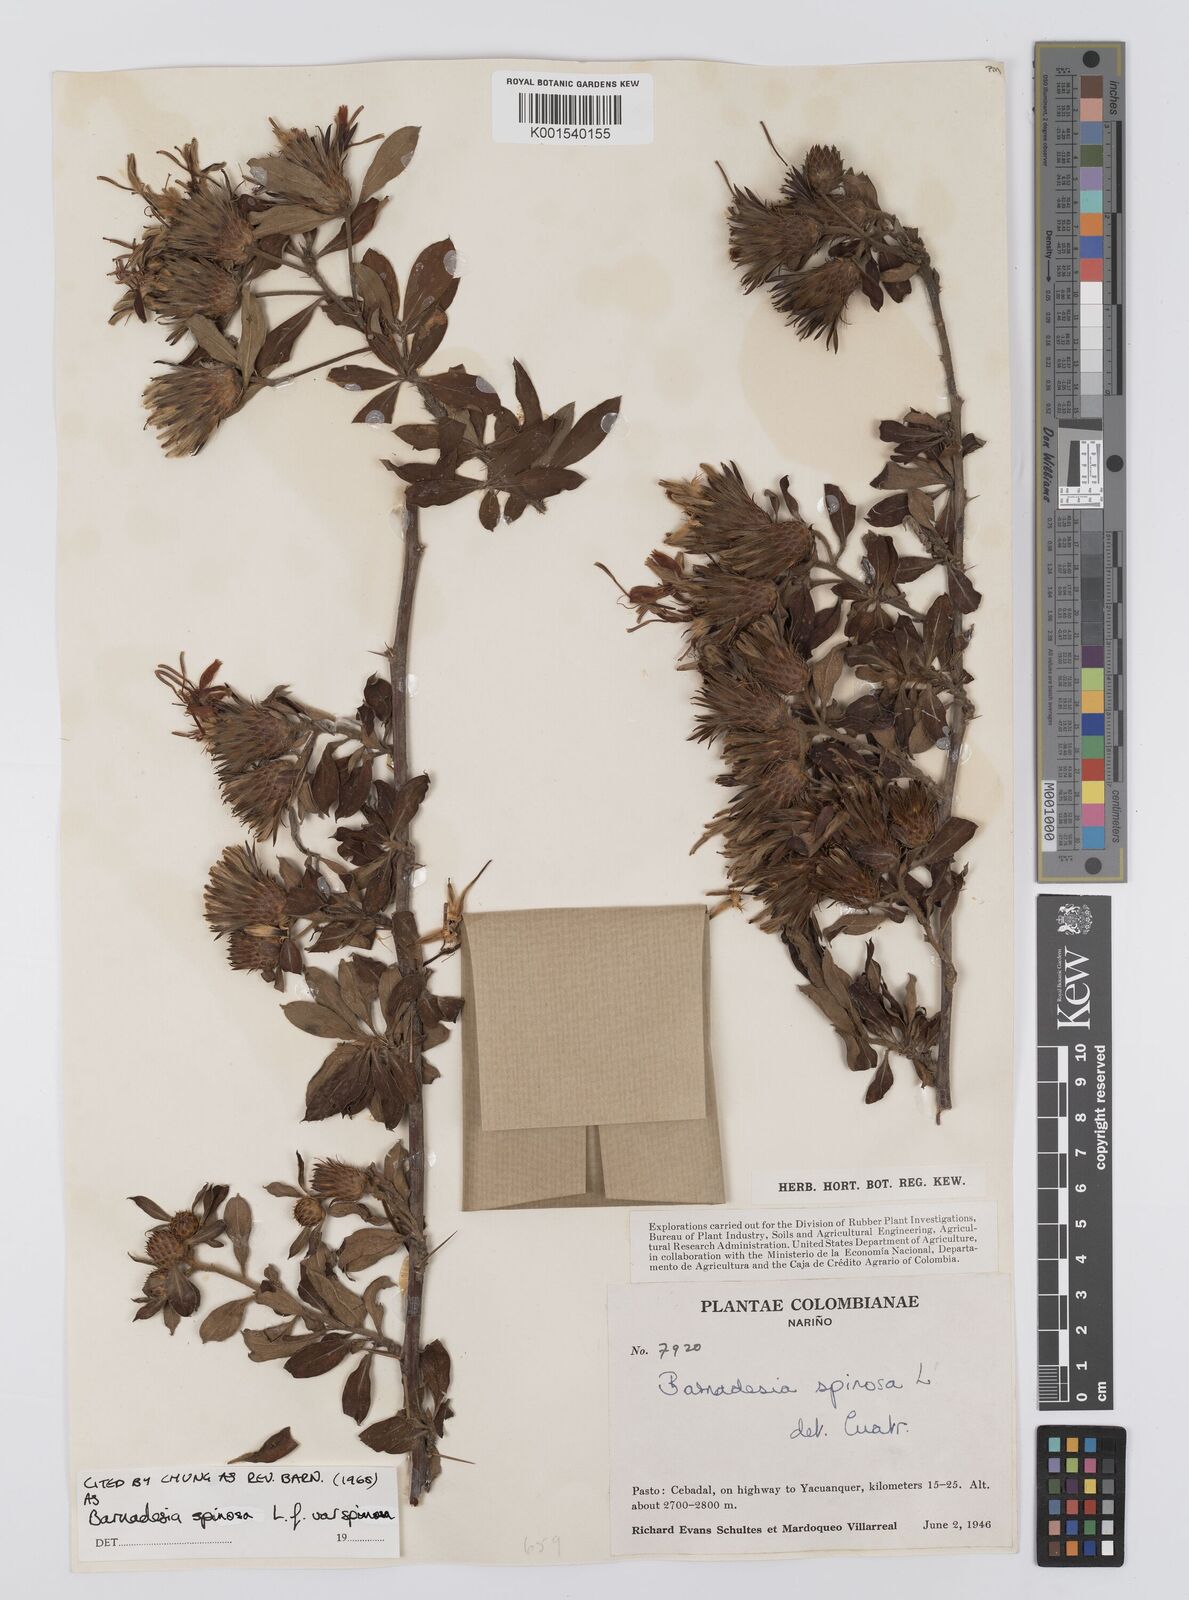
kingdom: Plantae
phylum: Tracheophyta
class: Magnoliopsida
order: Asterales
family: Asteraceae
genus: Barnadesia
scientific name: Barnadesia spinosa
